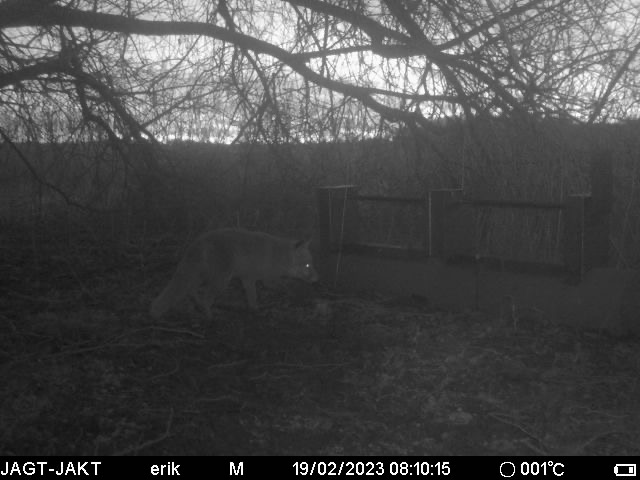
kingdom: Animalia
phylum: Chordata
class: Mammalia
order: Carnivora
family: Canidae
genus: Vulpes
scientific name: Vulpes vulpes
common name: Ræv
